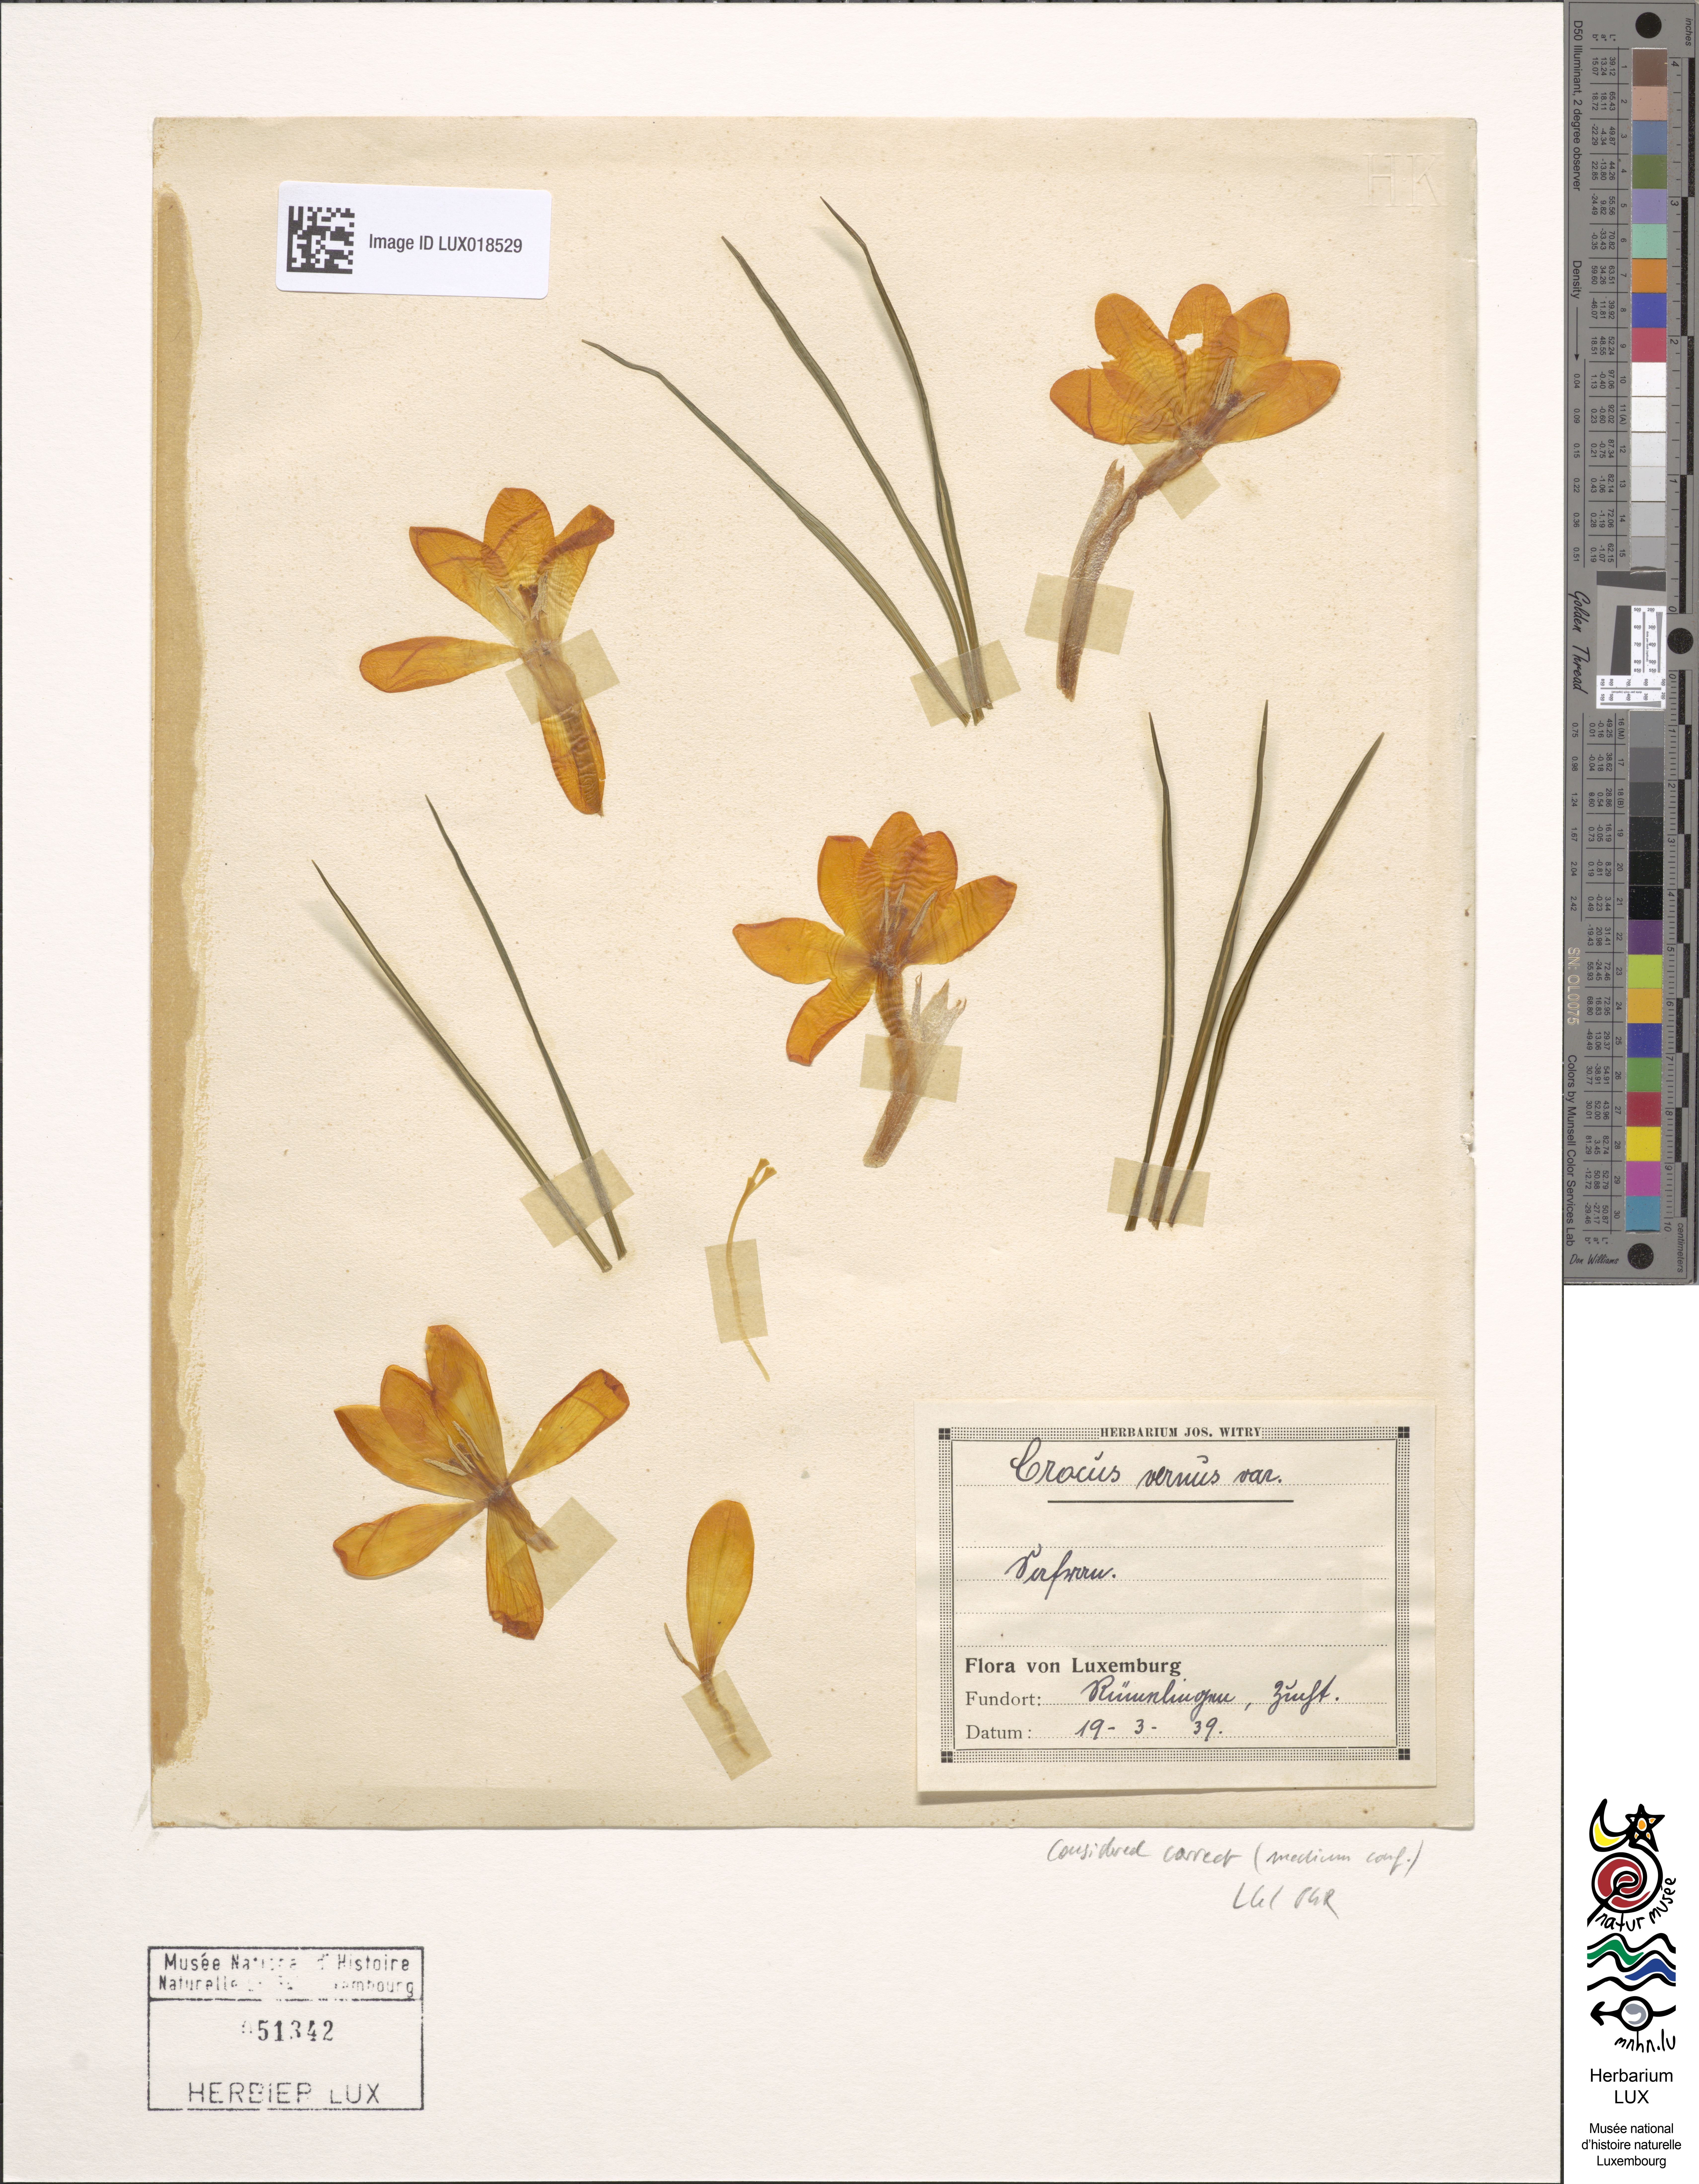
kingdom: Plantae
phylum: Tracheophyta
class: Liliopsida
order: Asparagales
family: Iridaceae
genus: Crocus
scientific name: Crocus vernus
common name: Spring crocus
